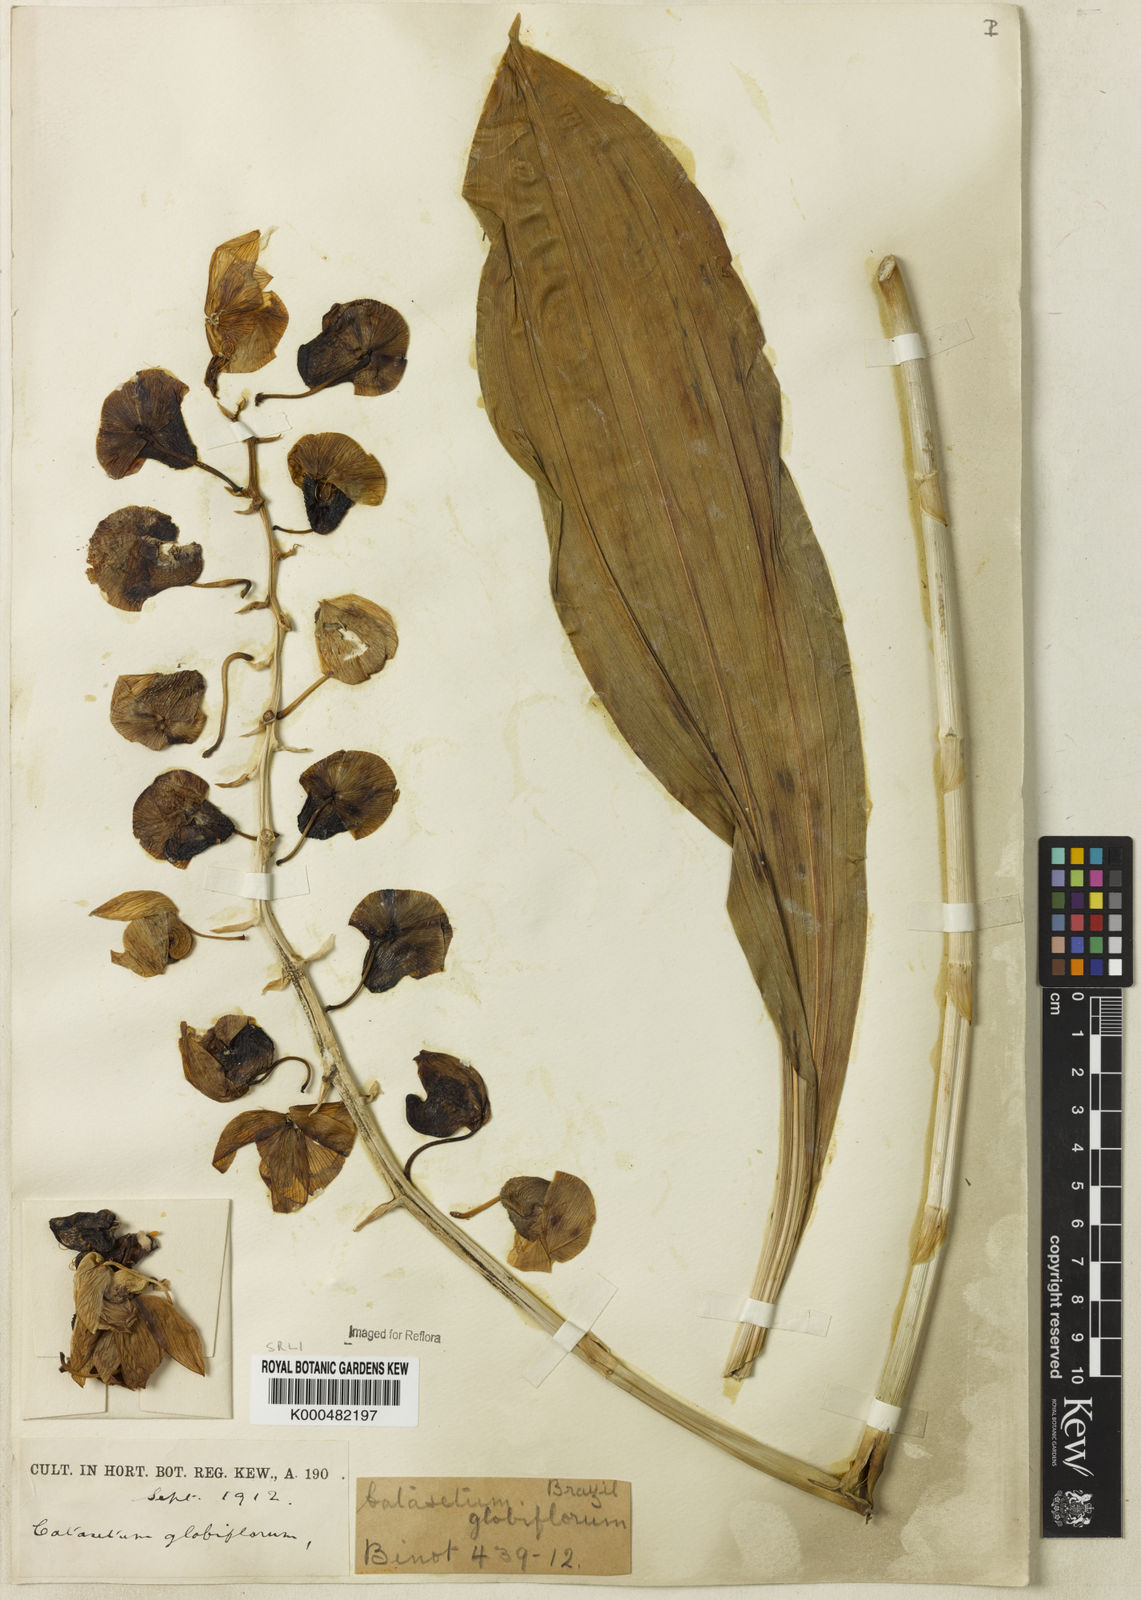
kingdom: Plantae
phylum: Tracheophyta
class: Liliopsida
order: Asparagales
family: Orchidaceae
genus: Catasetum
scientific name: Catasetum
